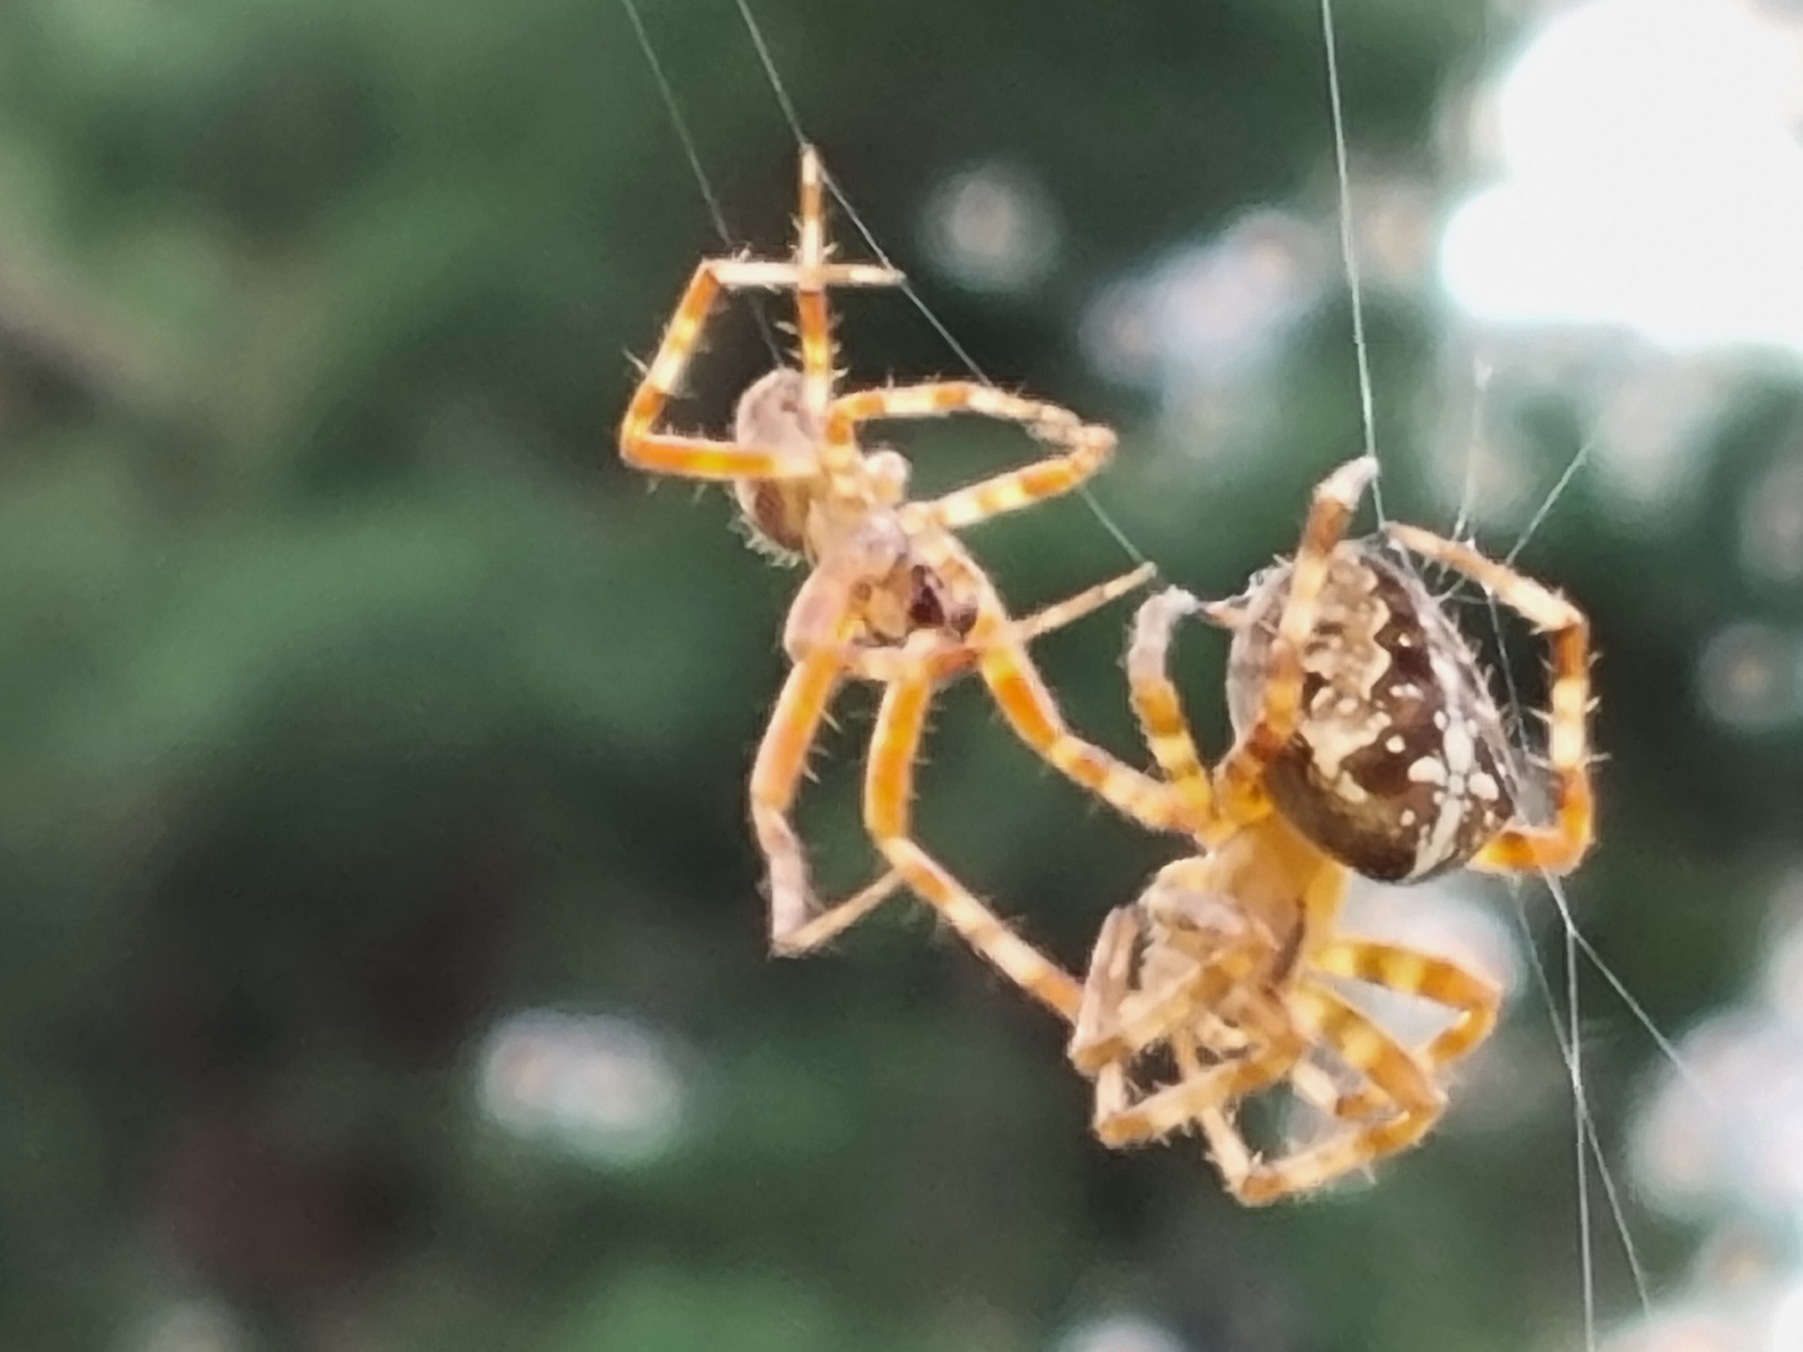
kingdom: Animalia
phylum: Arthropoda
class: Arachnida
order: Araneae
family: Araneidae
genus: Araneus
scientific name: Araneus diadematus
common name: Korsedderkop
